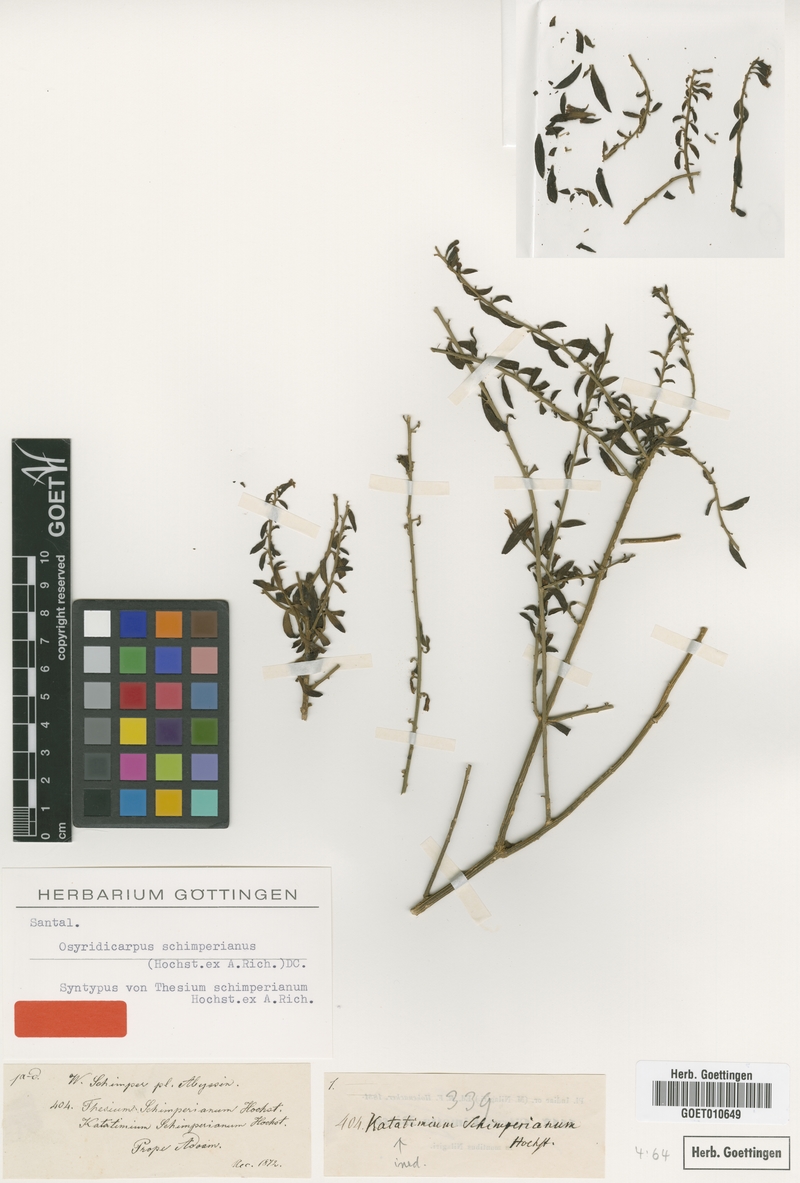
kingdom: Plantae
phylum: Tracheophyta
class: Magnoliopsida
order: Santalales
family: Thesiaceae
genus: Osyridicarpos
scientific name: Osyridicarpos schimperianus
